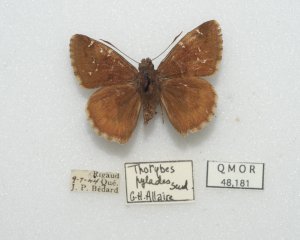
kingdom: Animalia
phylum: Arthropoda
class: Insecta
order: Lepidoptera
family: Hesperiidae
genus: Autochton
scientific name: Autochton
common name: Northern Cloudywing
